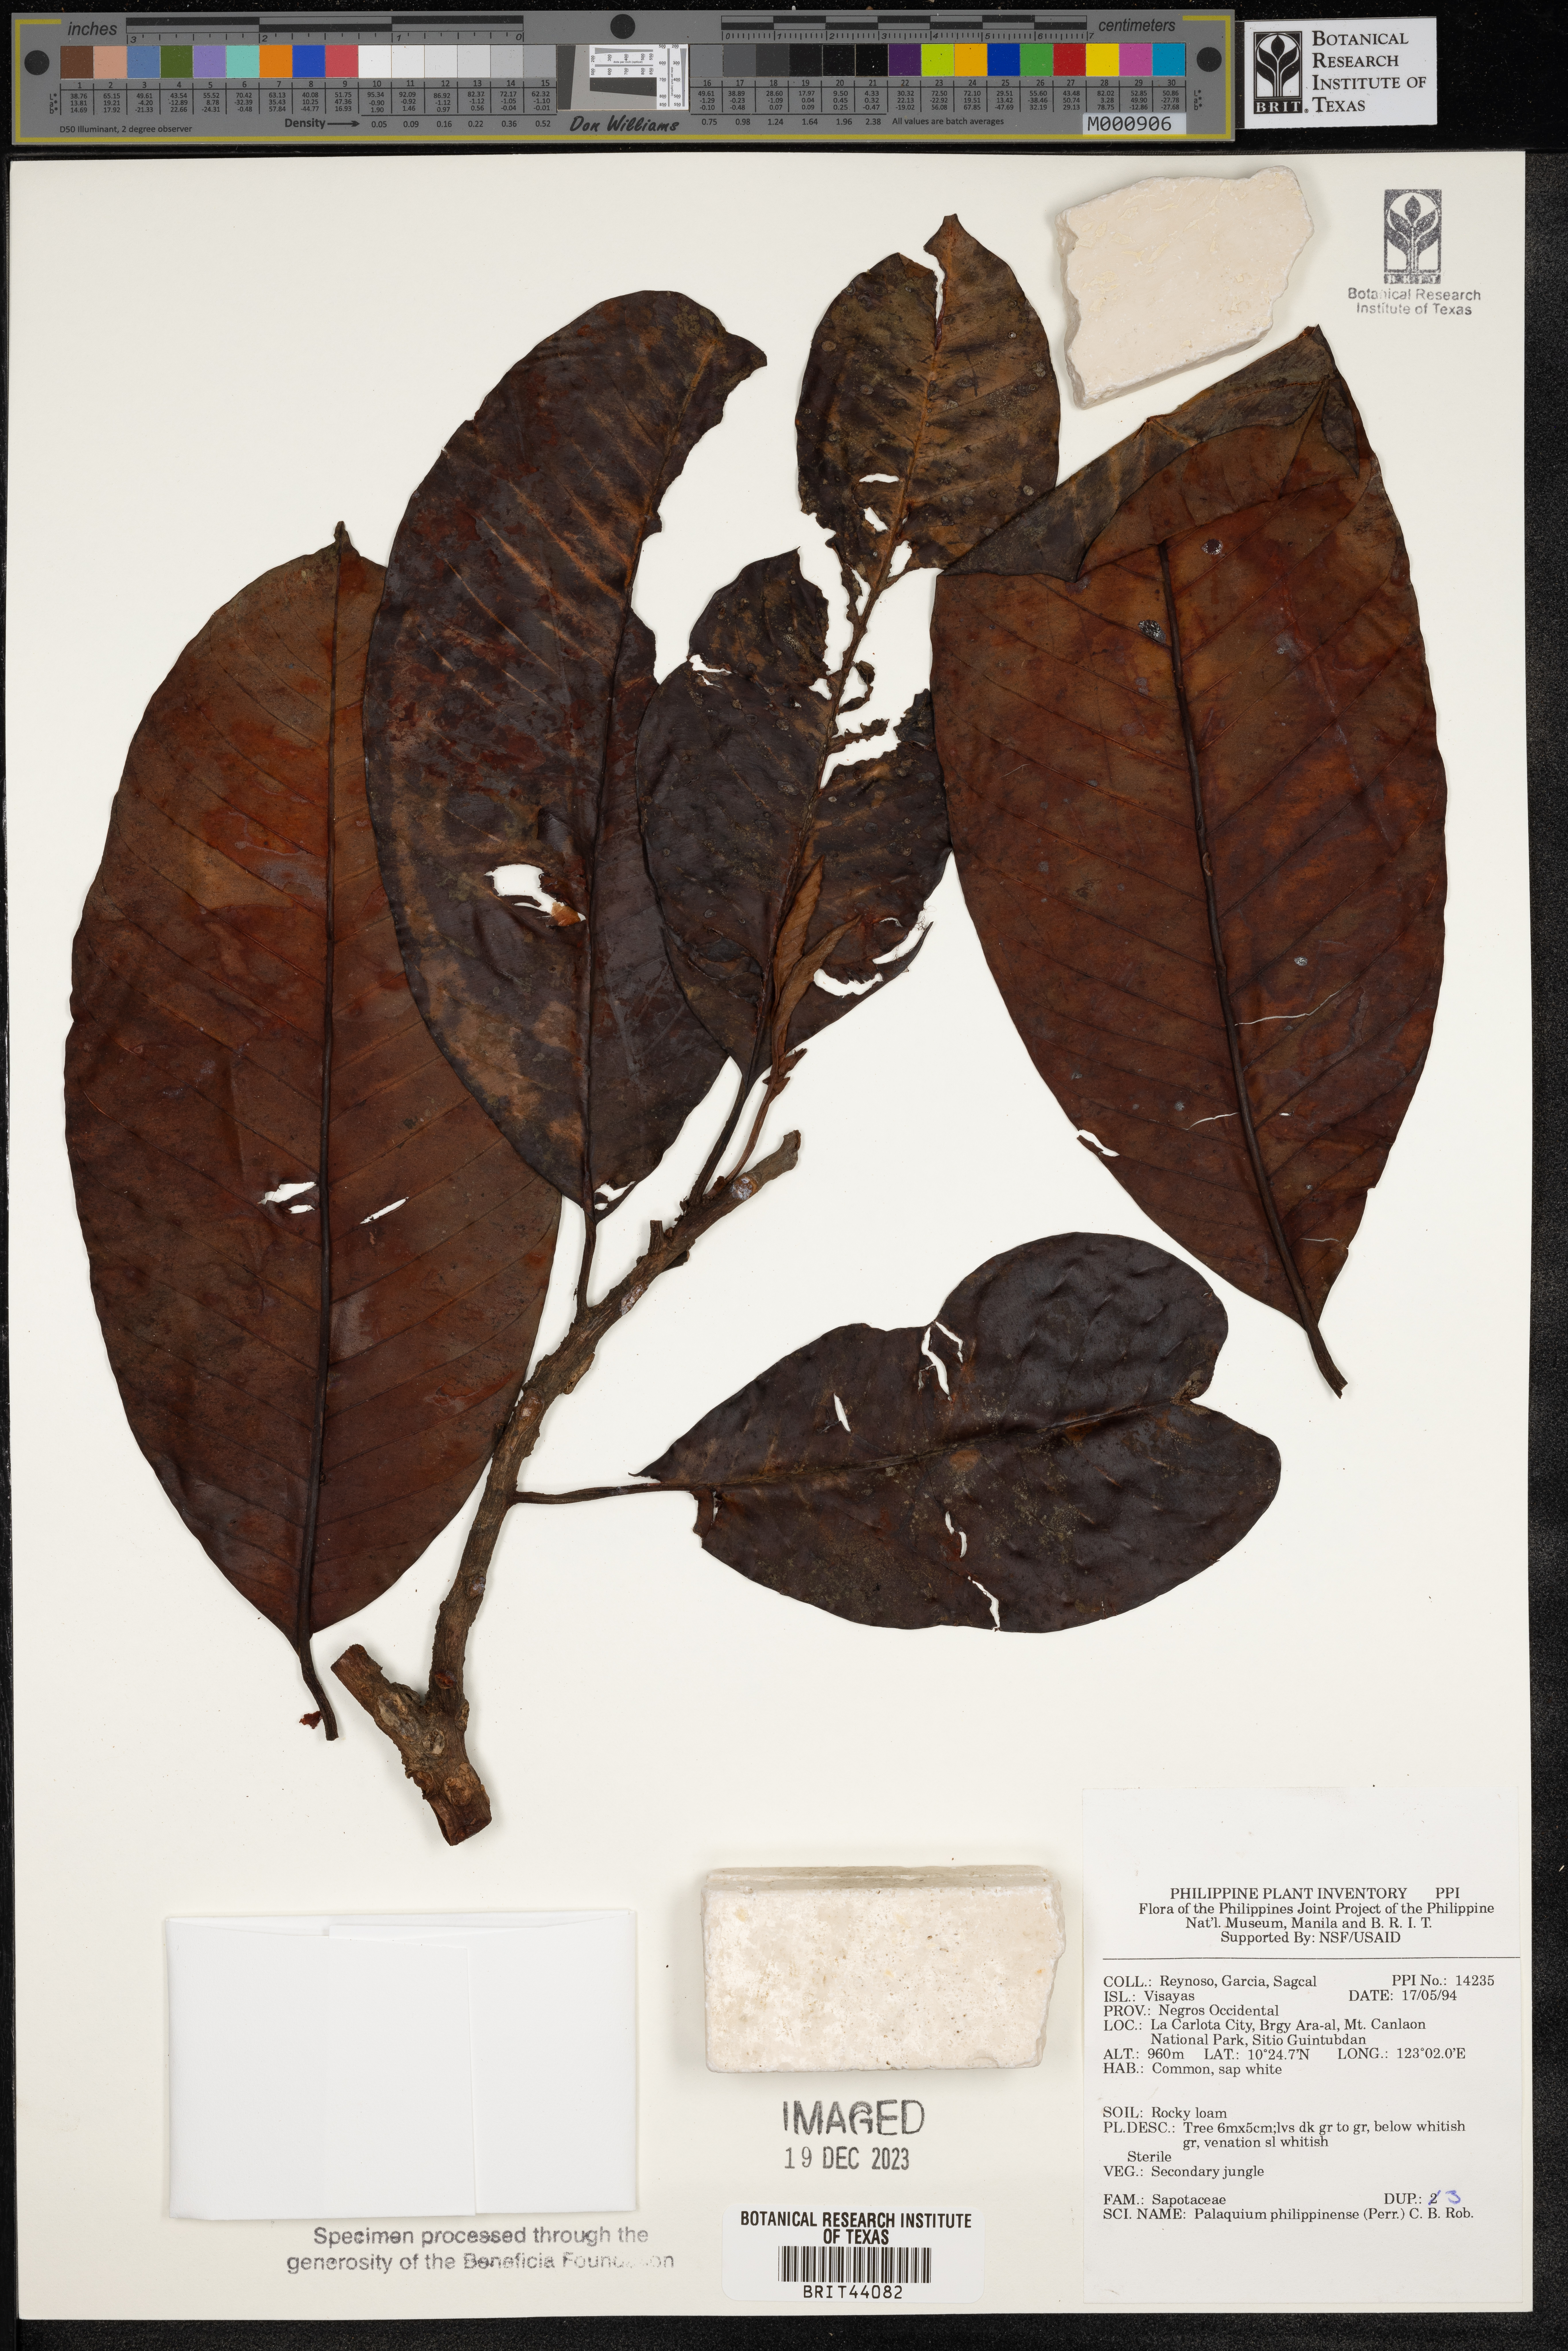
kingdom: Plantae
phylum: Tracheophyta
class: Magnoliopsida
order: Ericales
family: Sapotaceae
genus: Palaquium
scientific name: Palaquium philippense
